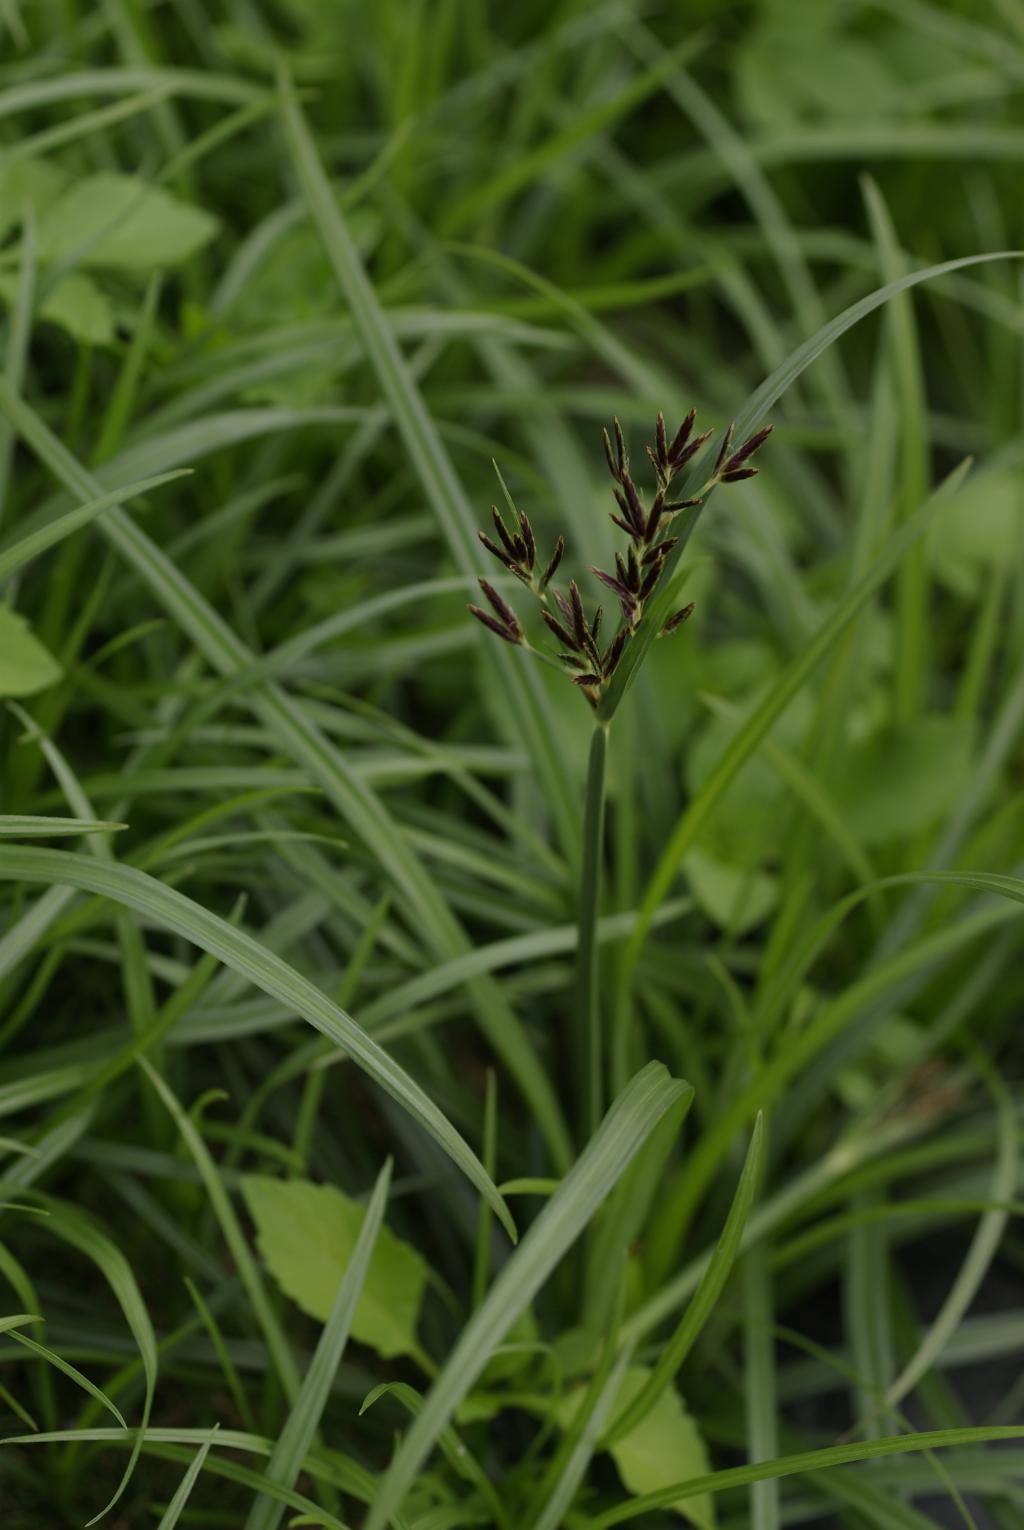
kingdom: Plantae
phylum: Tracheophyta
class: Liliopsida
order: Poales
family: Cyperaceae
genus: Cyperus
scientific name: Cyperus rotundus
